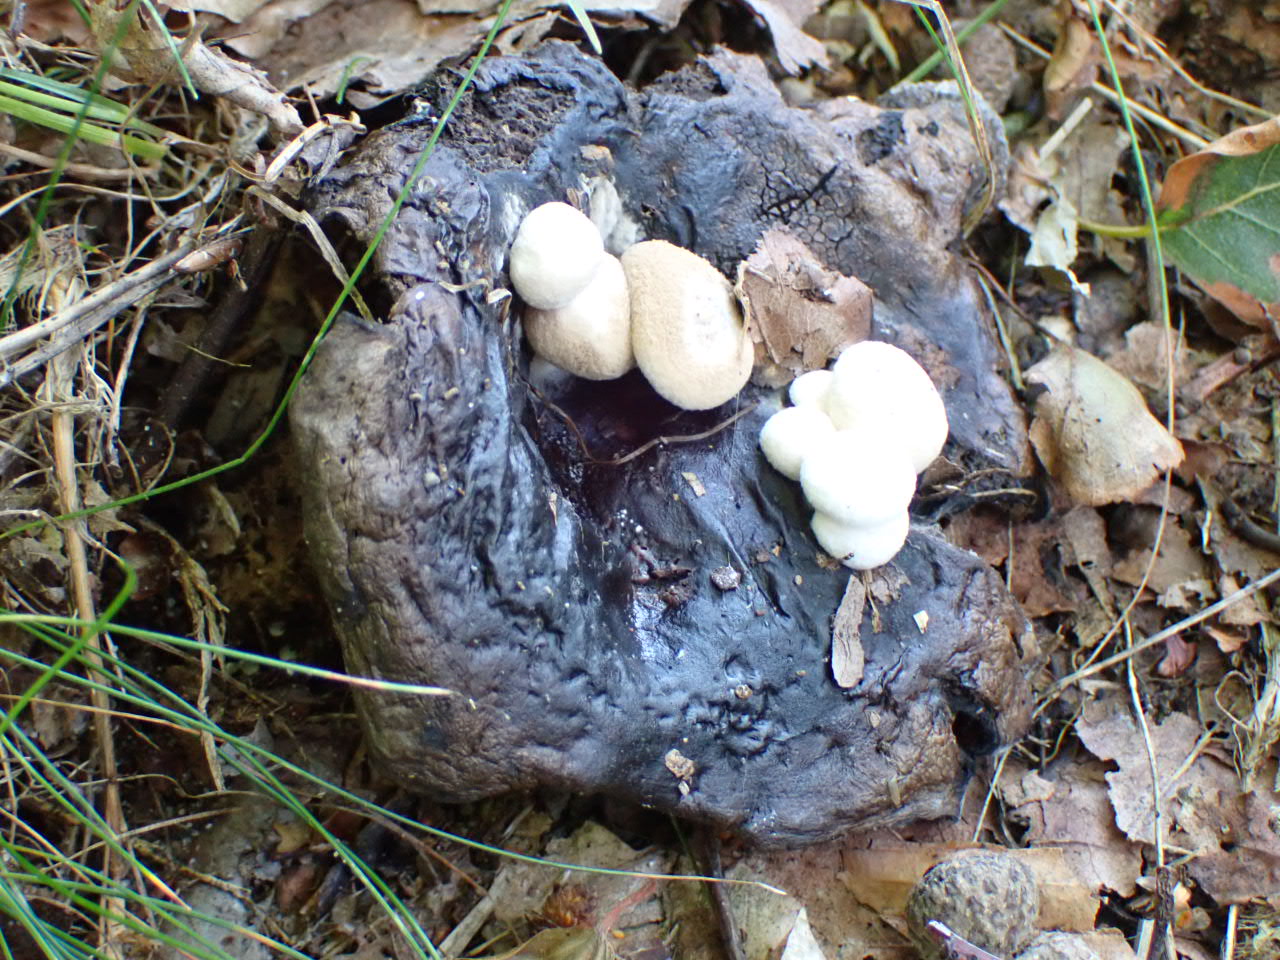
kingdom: Fungi
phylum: Basidiomycota
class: Agaricomycetes
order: Agaricales
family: Lyophyllaceae
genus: Asterophora
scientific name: Asterophora lycoperdoides
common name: brunpudret snyltehat
